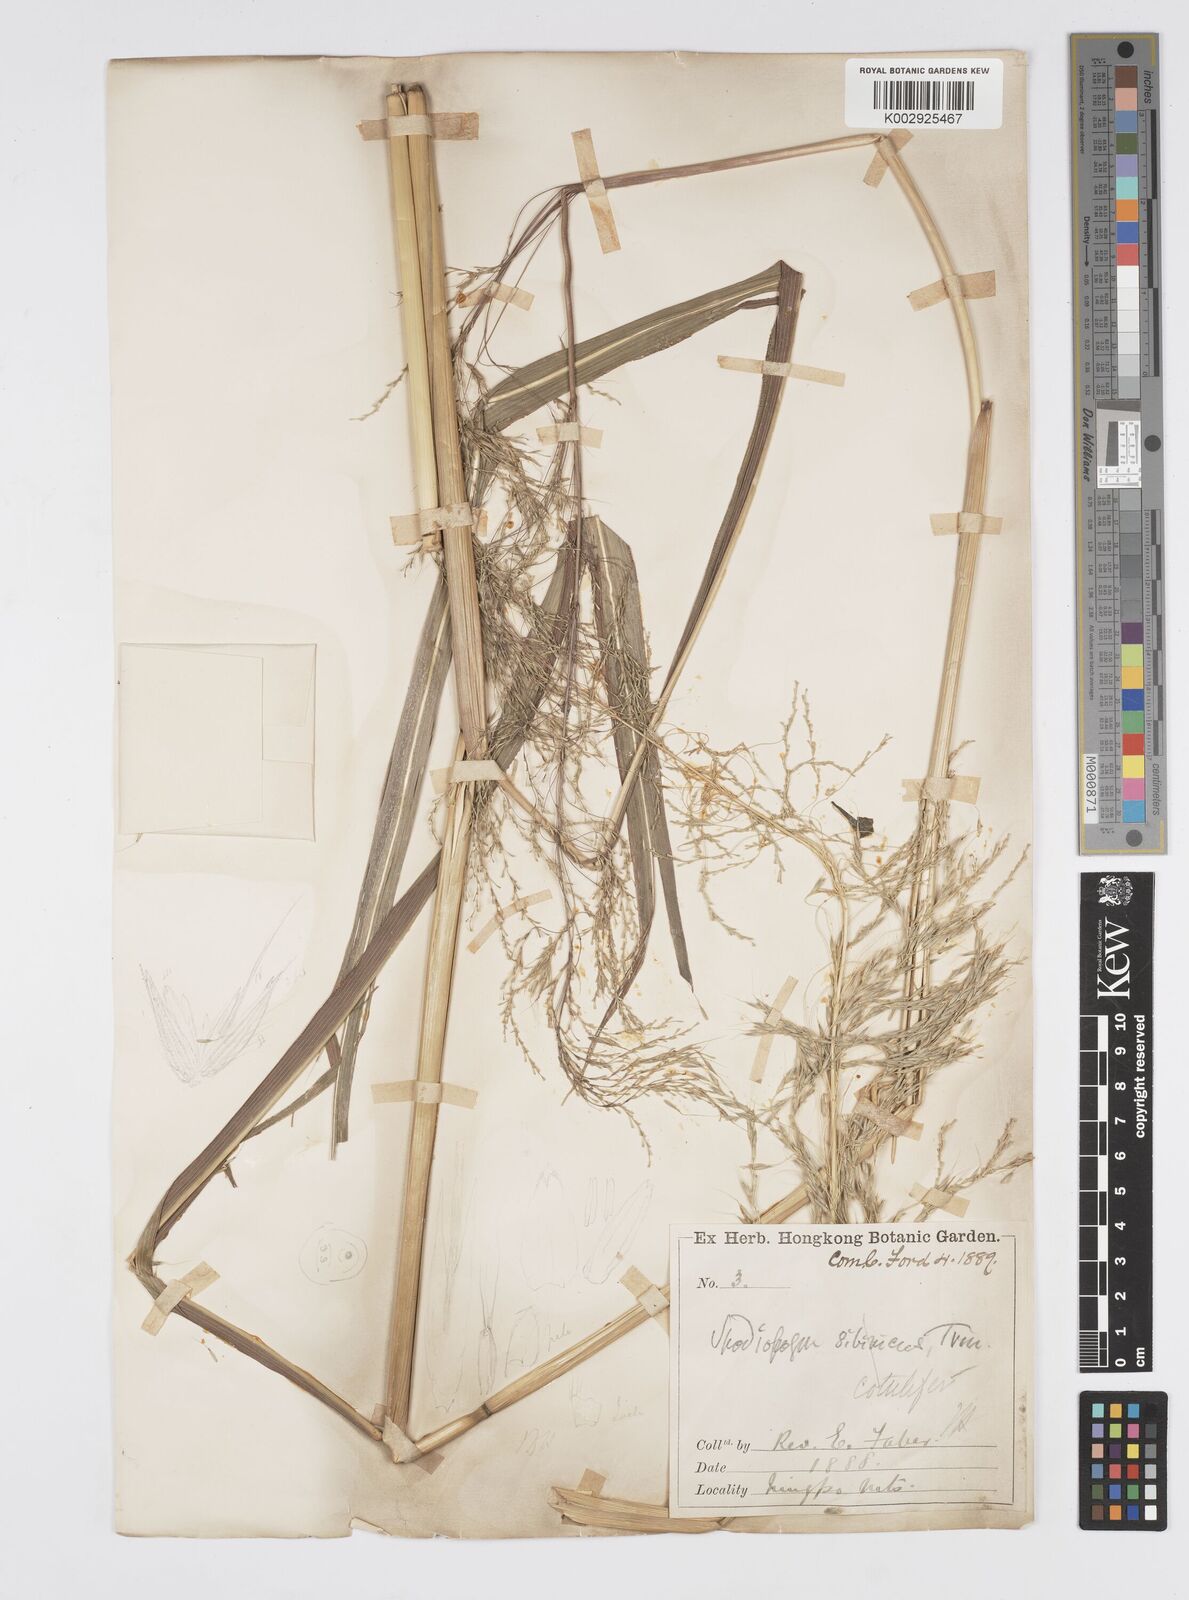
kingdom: Plantae
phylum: Tracheophyta
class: Liliopsida
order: Poales
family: Poaceae
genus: Spodiopogon
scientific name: Spodiopogon cotulifer
